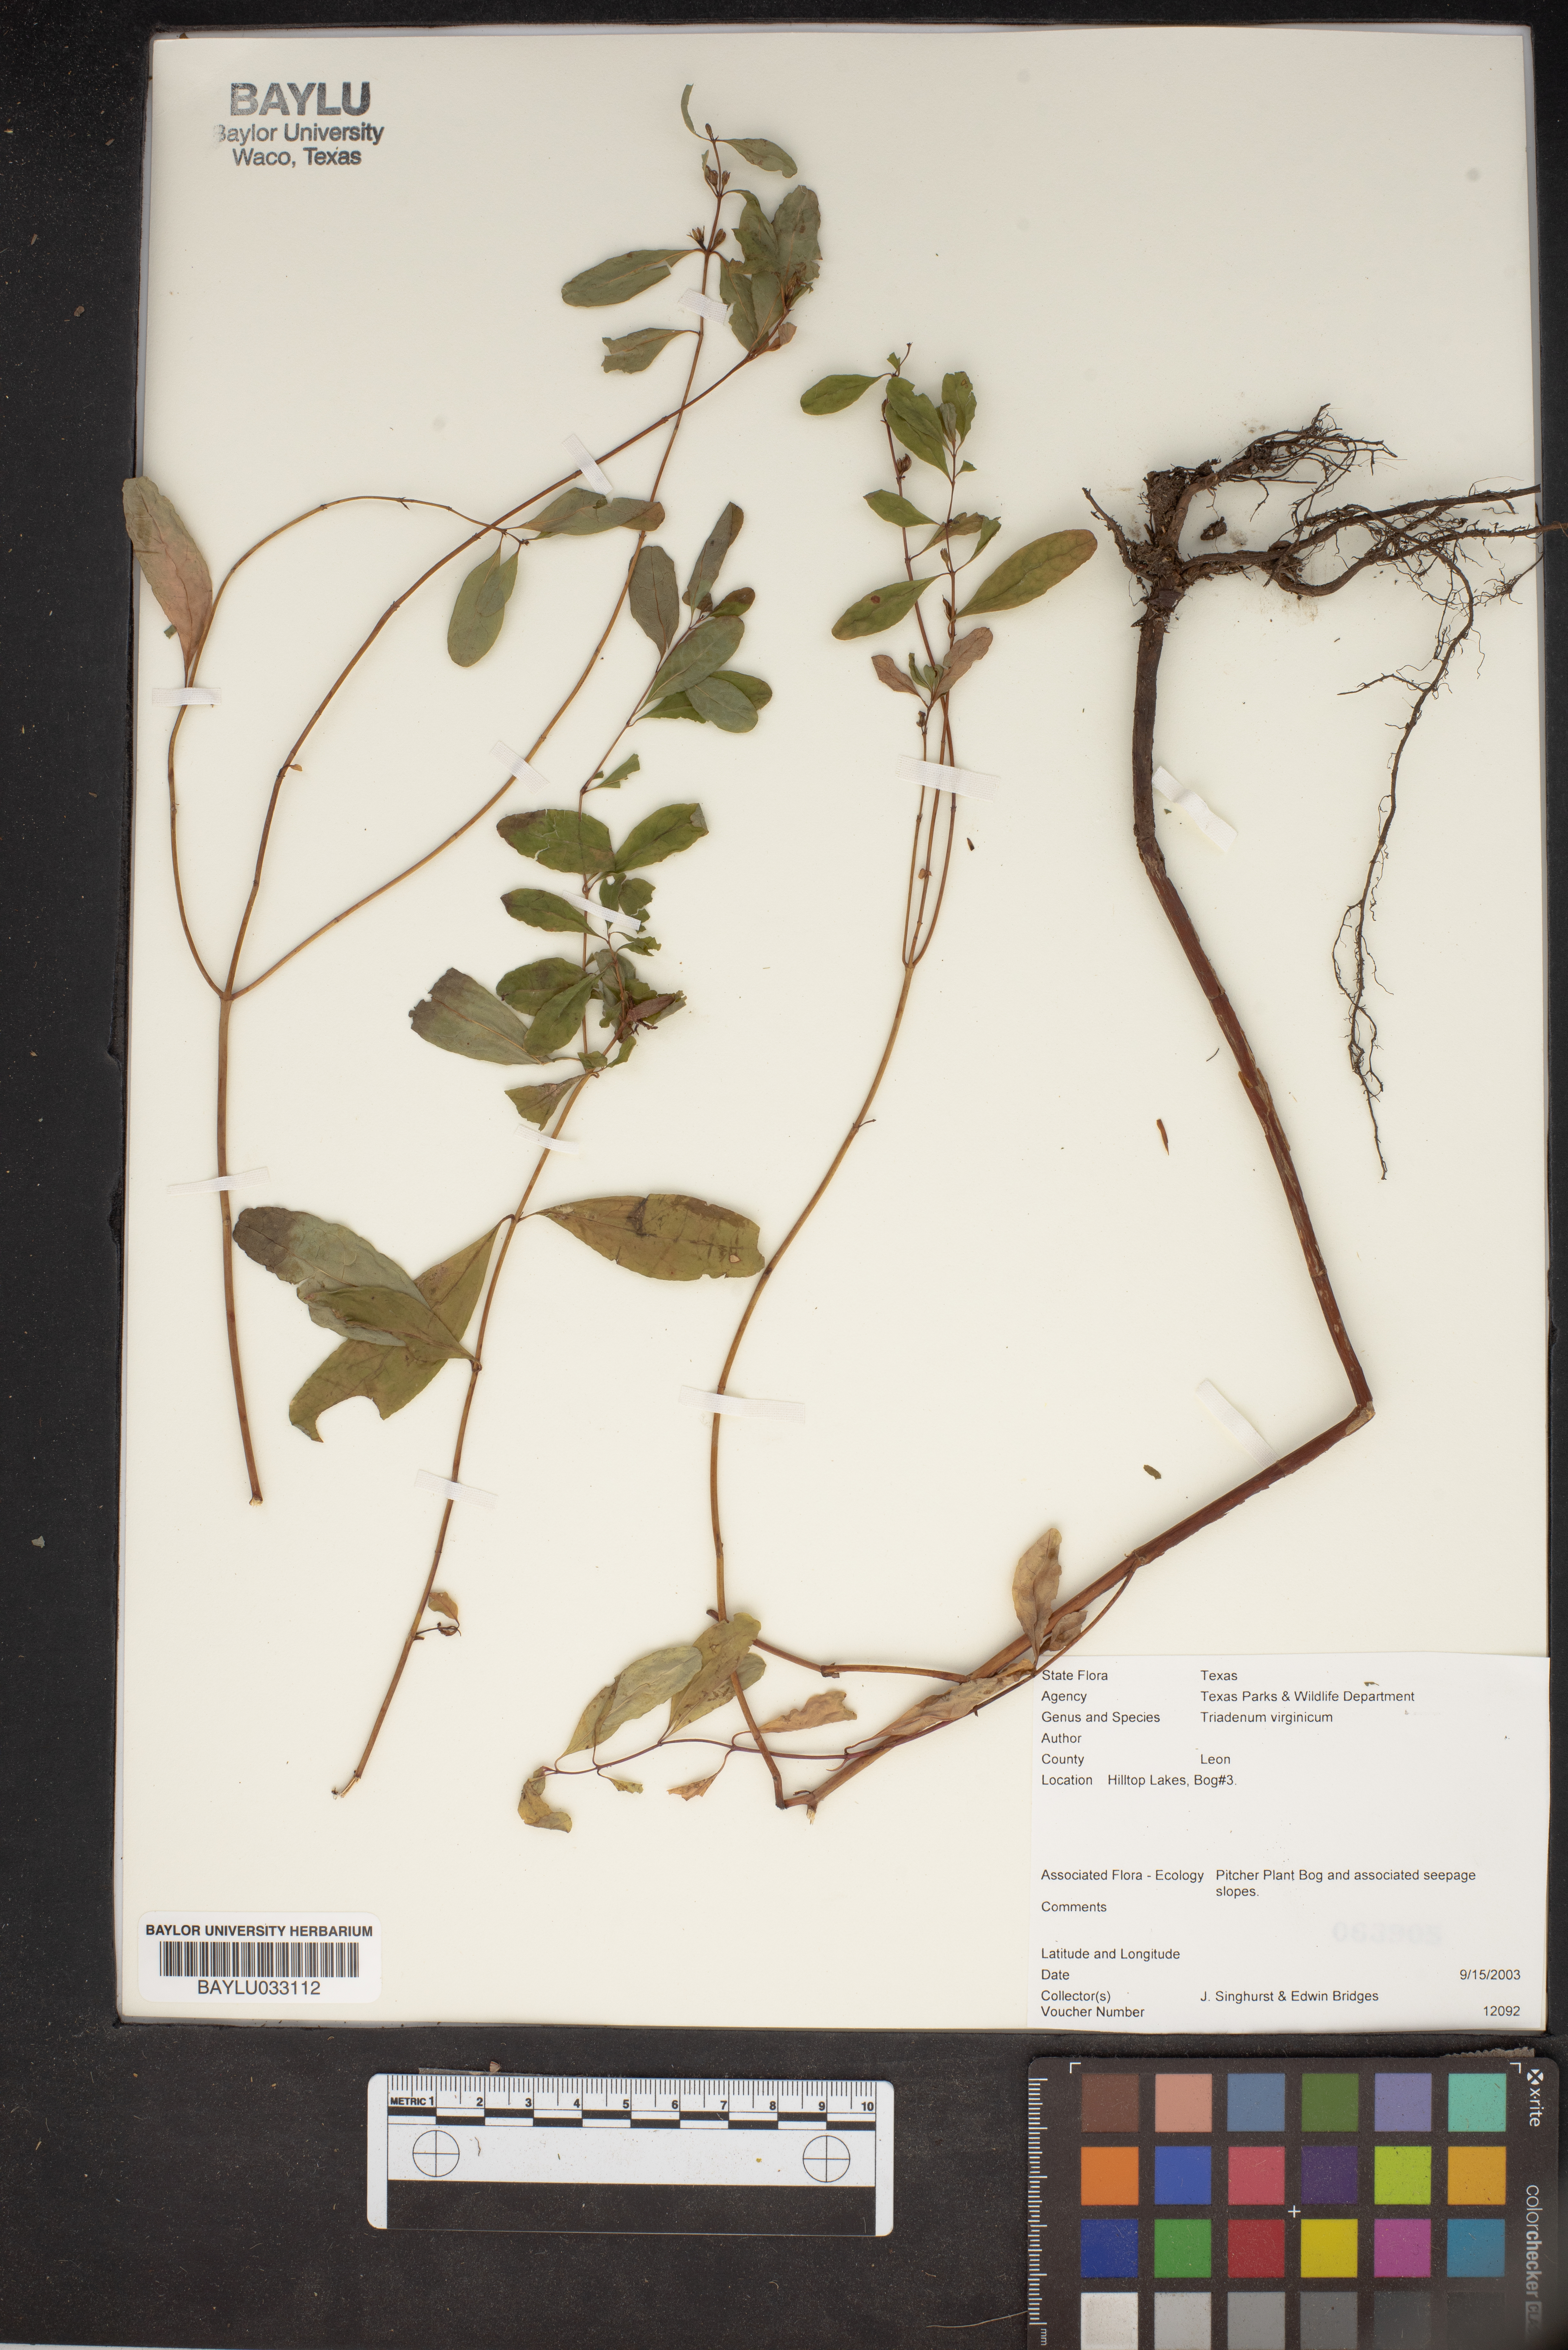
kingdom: Plantae
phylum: Tracheophyta
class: Magnoliopsida
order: Malpighiales
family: Hypericaceae
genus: Triadenum
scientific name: Triadenum virginicum
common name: Marsh st. john's-wort
